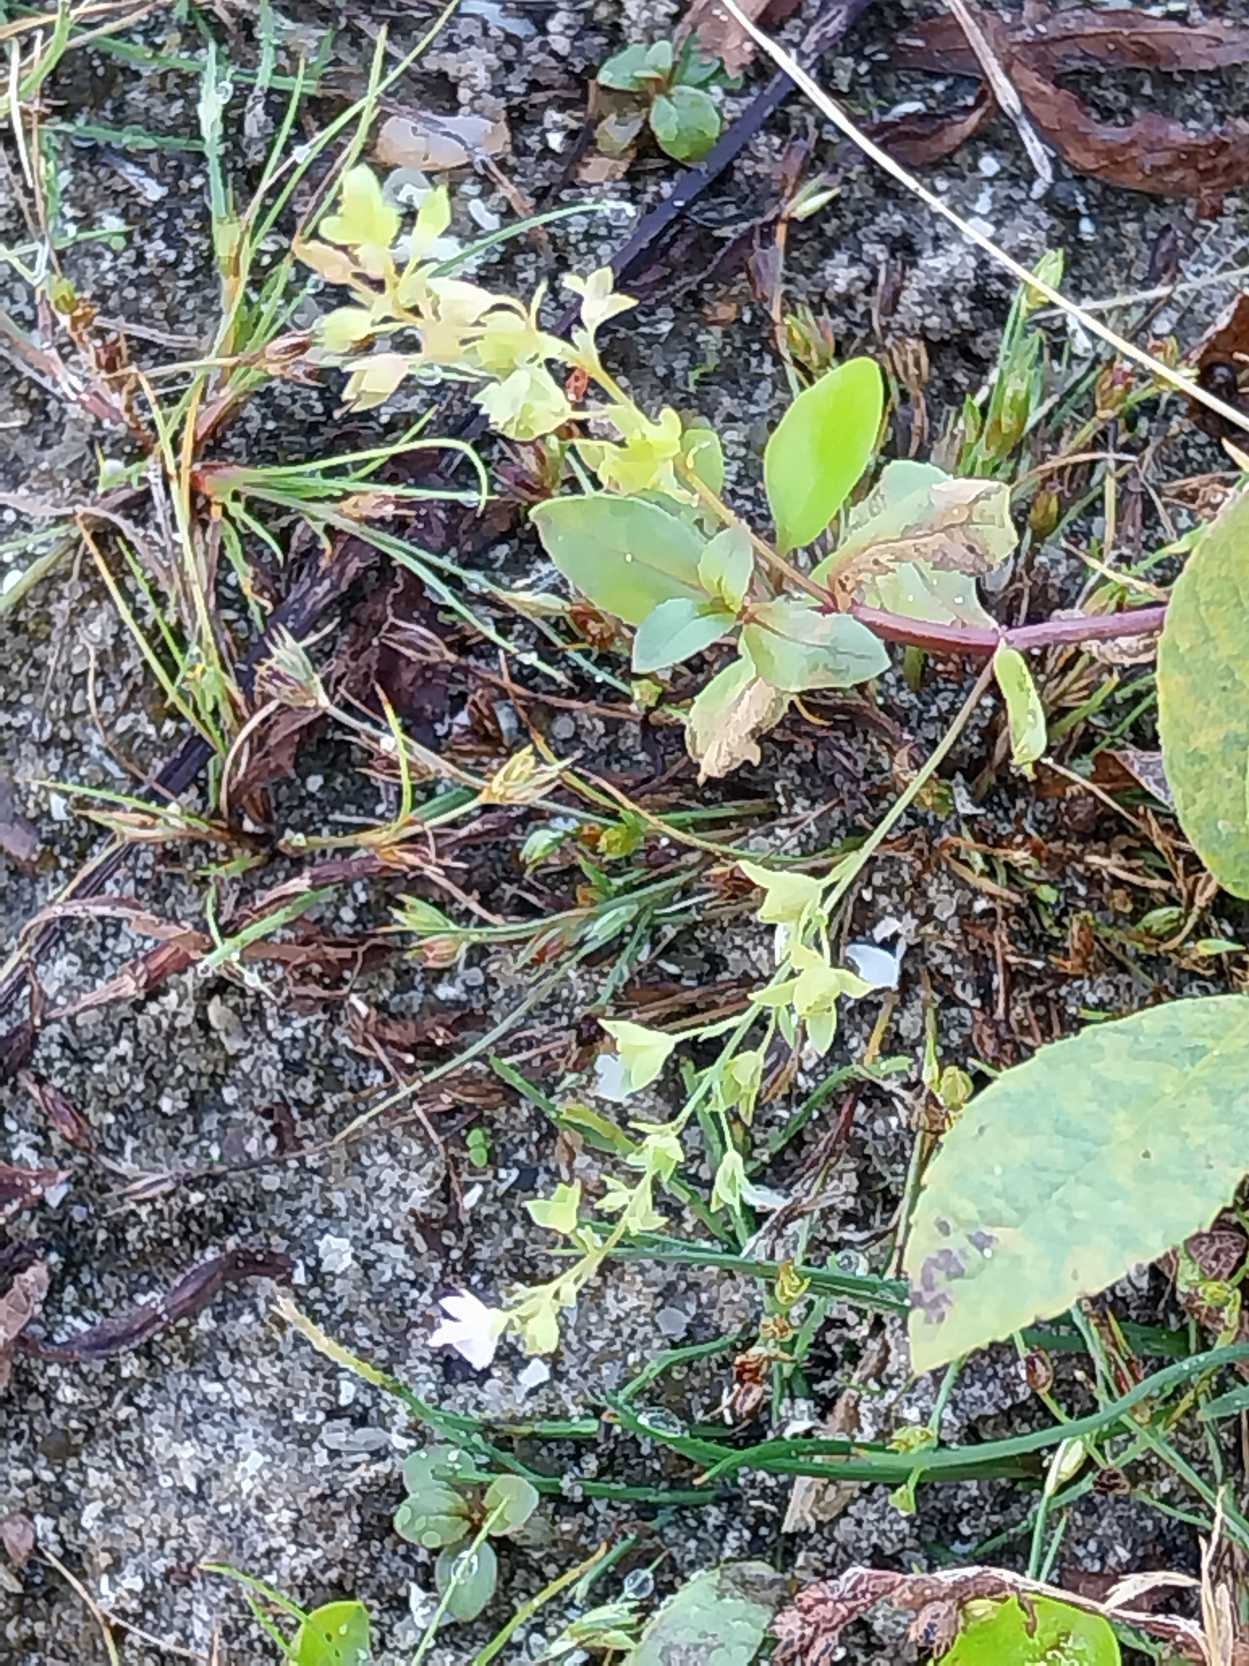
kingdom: Plantae
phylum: Tracheophyta
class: Magnoliopsida
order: Lamiales
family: Plantaginaceae
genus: Veronica
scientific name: Veronica anagallis-aquatica
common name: Lancetbladet ærenpris
